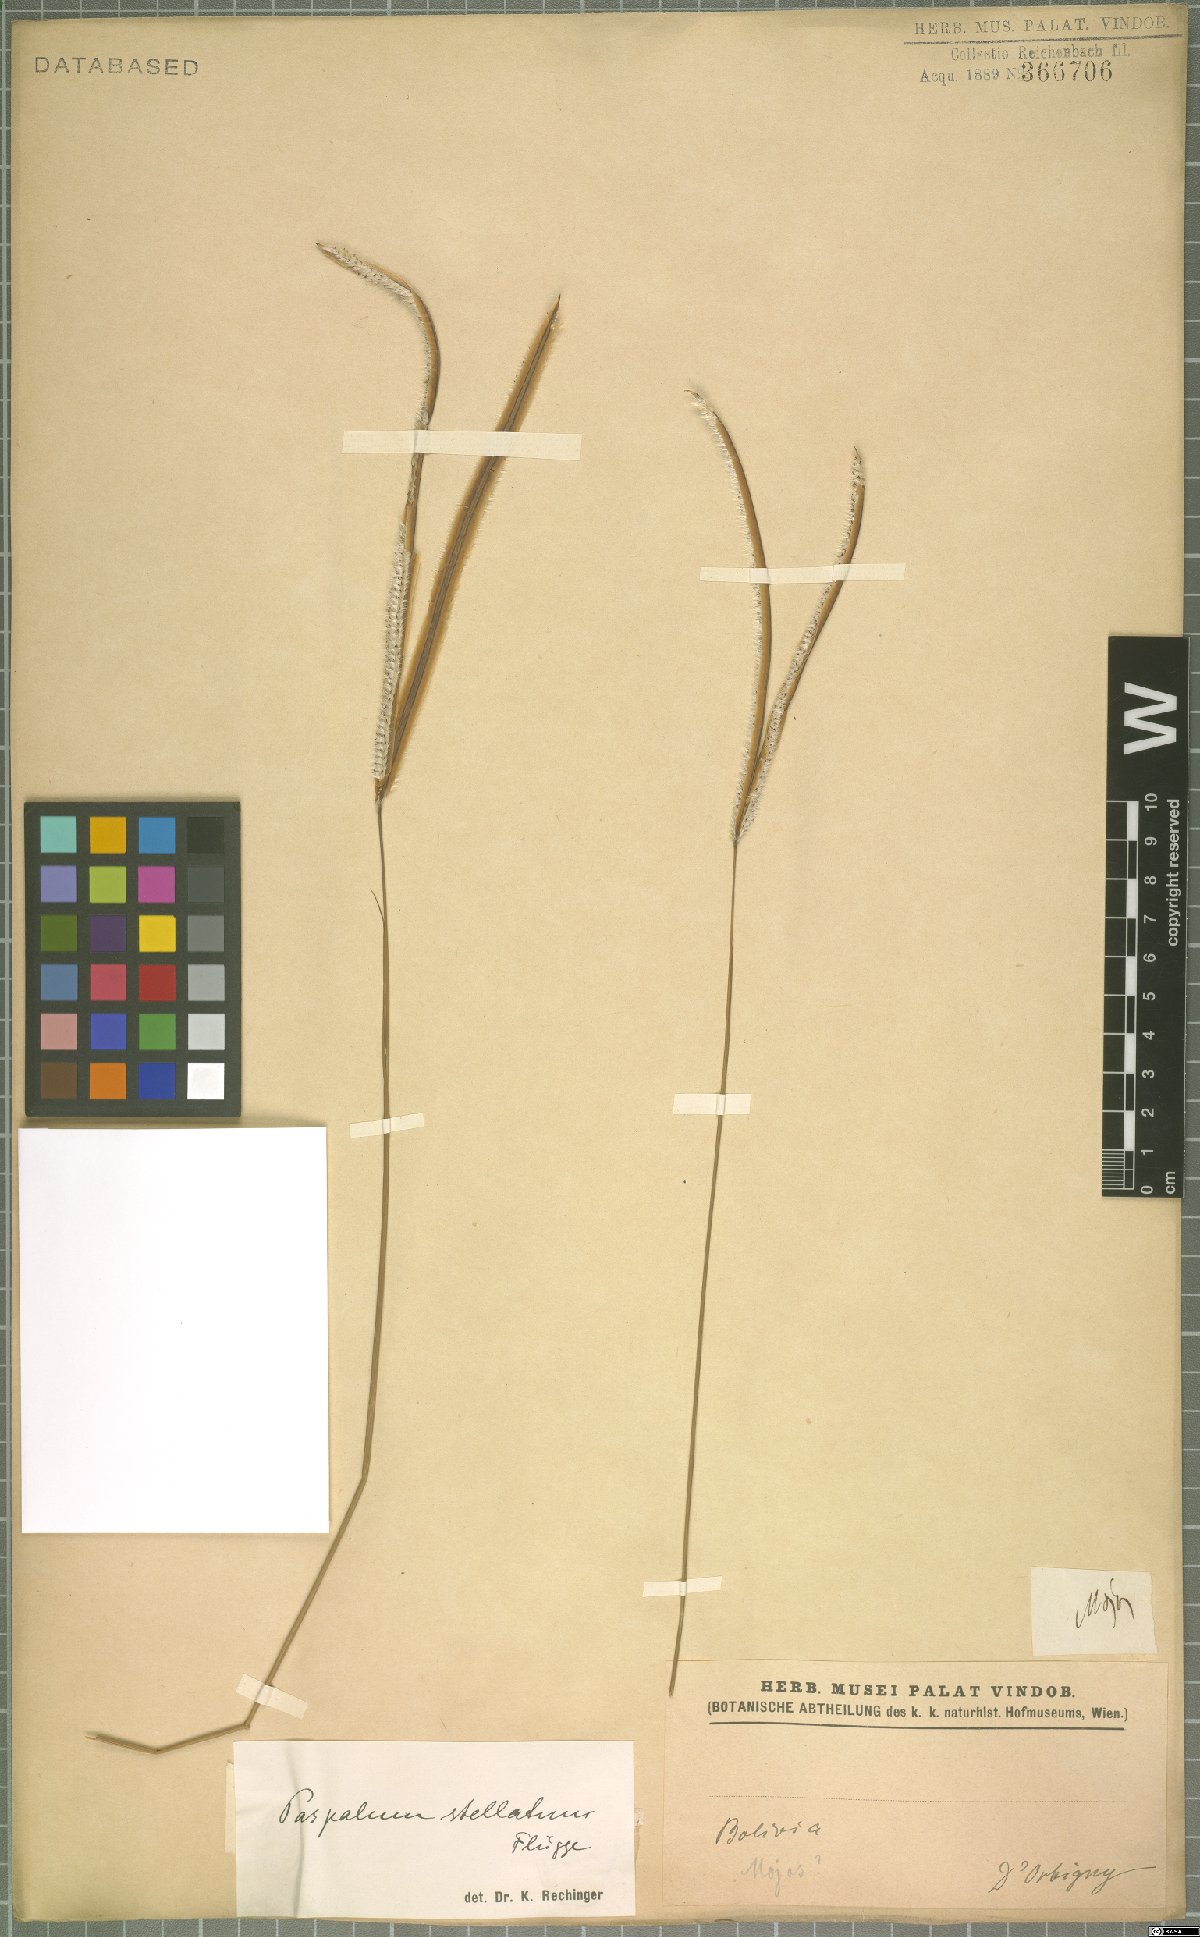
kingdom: Plantae
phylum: Tracheophyta
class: Liliopsida
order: Poales
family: Poaceae
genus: Paspalum
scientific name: Paspalum stellatum
